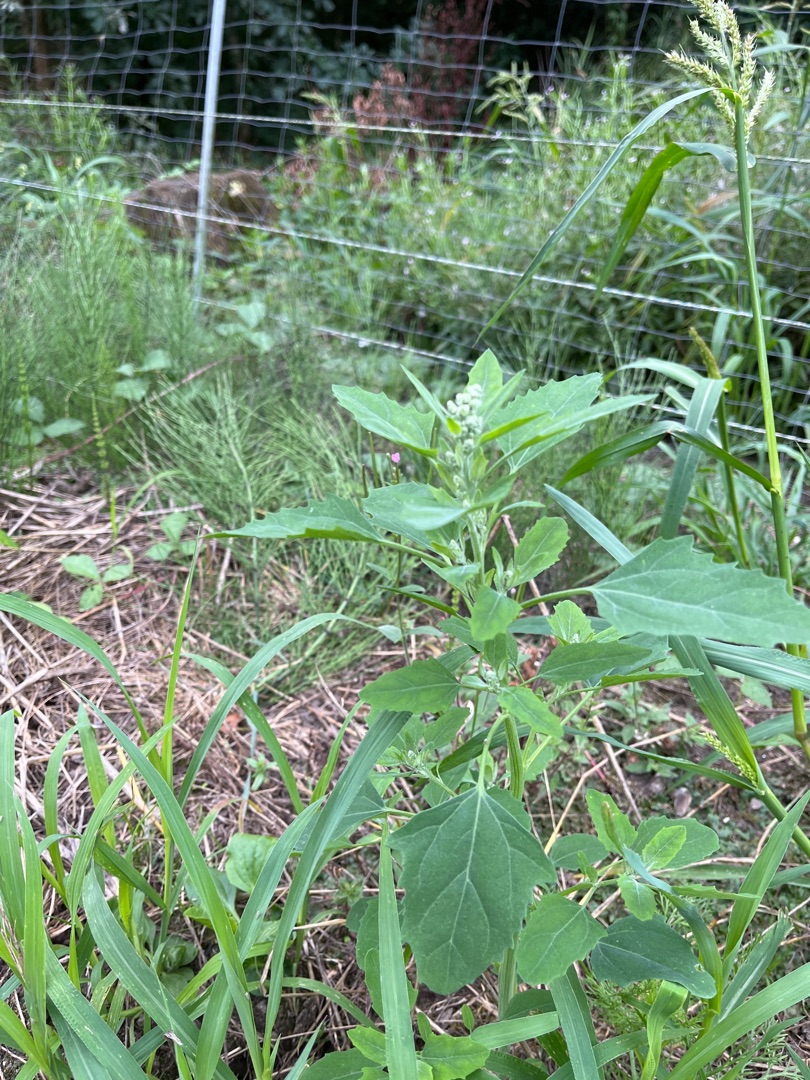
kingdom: Plantae
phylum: Tracheophyta
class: Magnoliopsida
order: Caryophyllales
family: Amaranthaceae
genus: Chenopodium
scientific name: Chenopodium album
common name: Hvidmelet gåsefod
